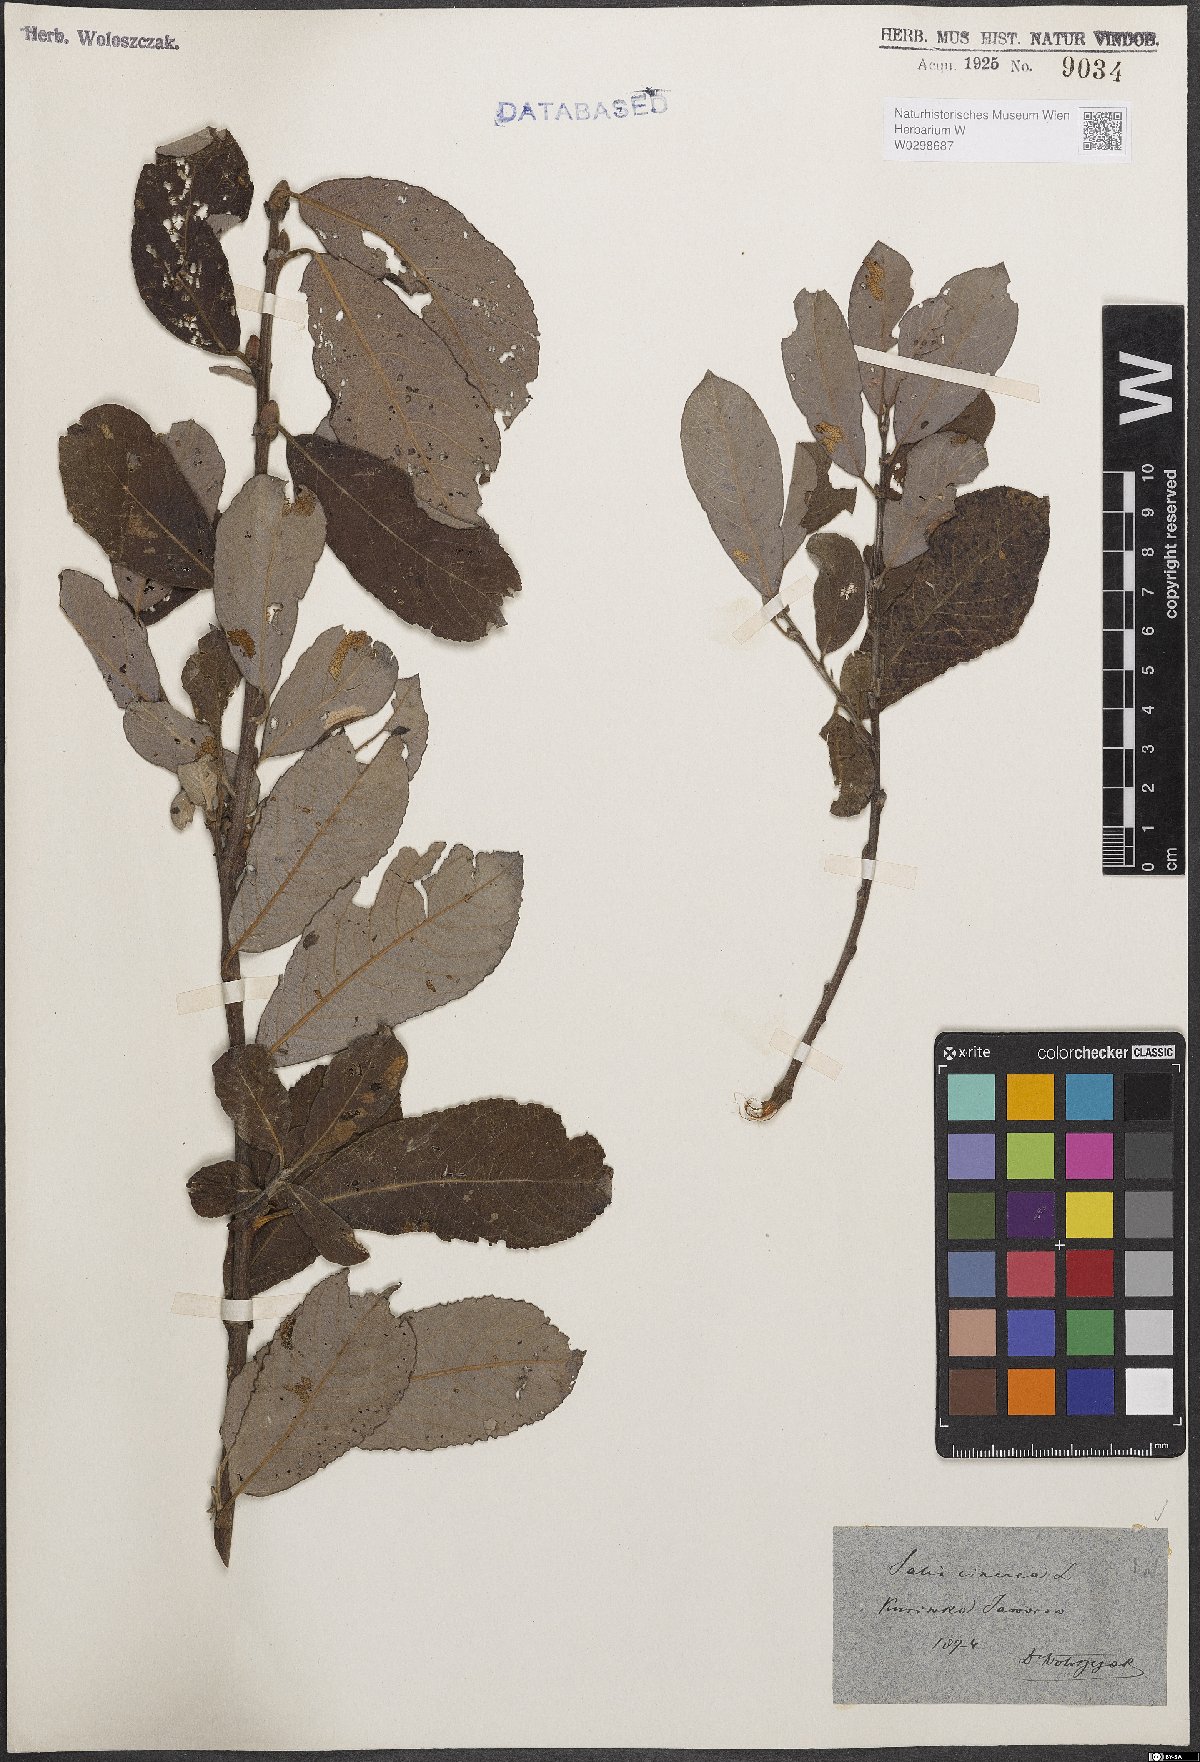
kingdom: Plantae
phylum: Tracheophyta
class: Magnoliopsida
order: Malpighiales
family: Salicaceae
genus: Salix
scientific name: Salix cinerea
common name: Common sallow
